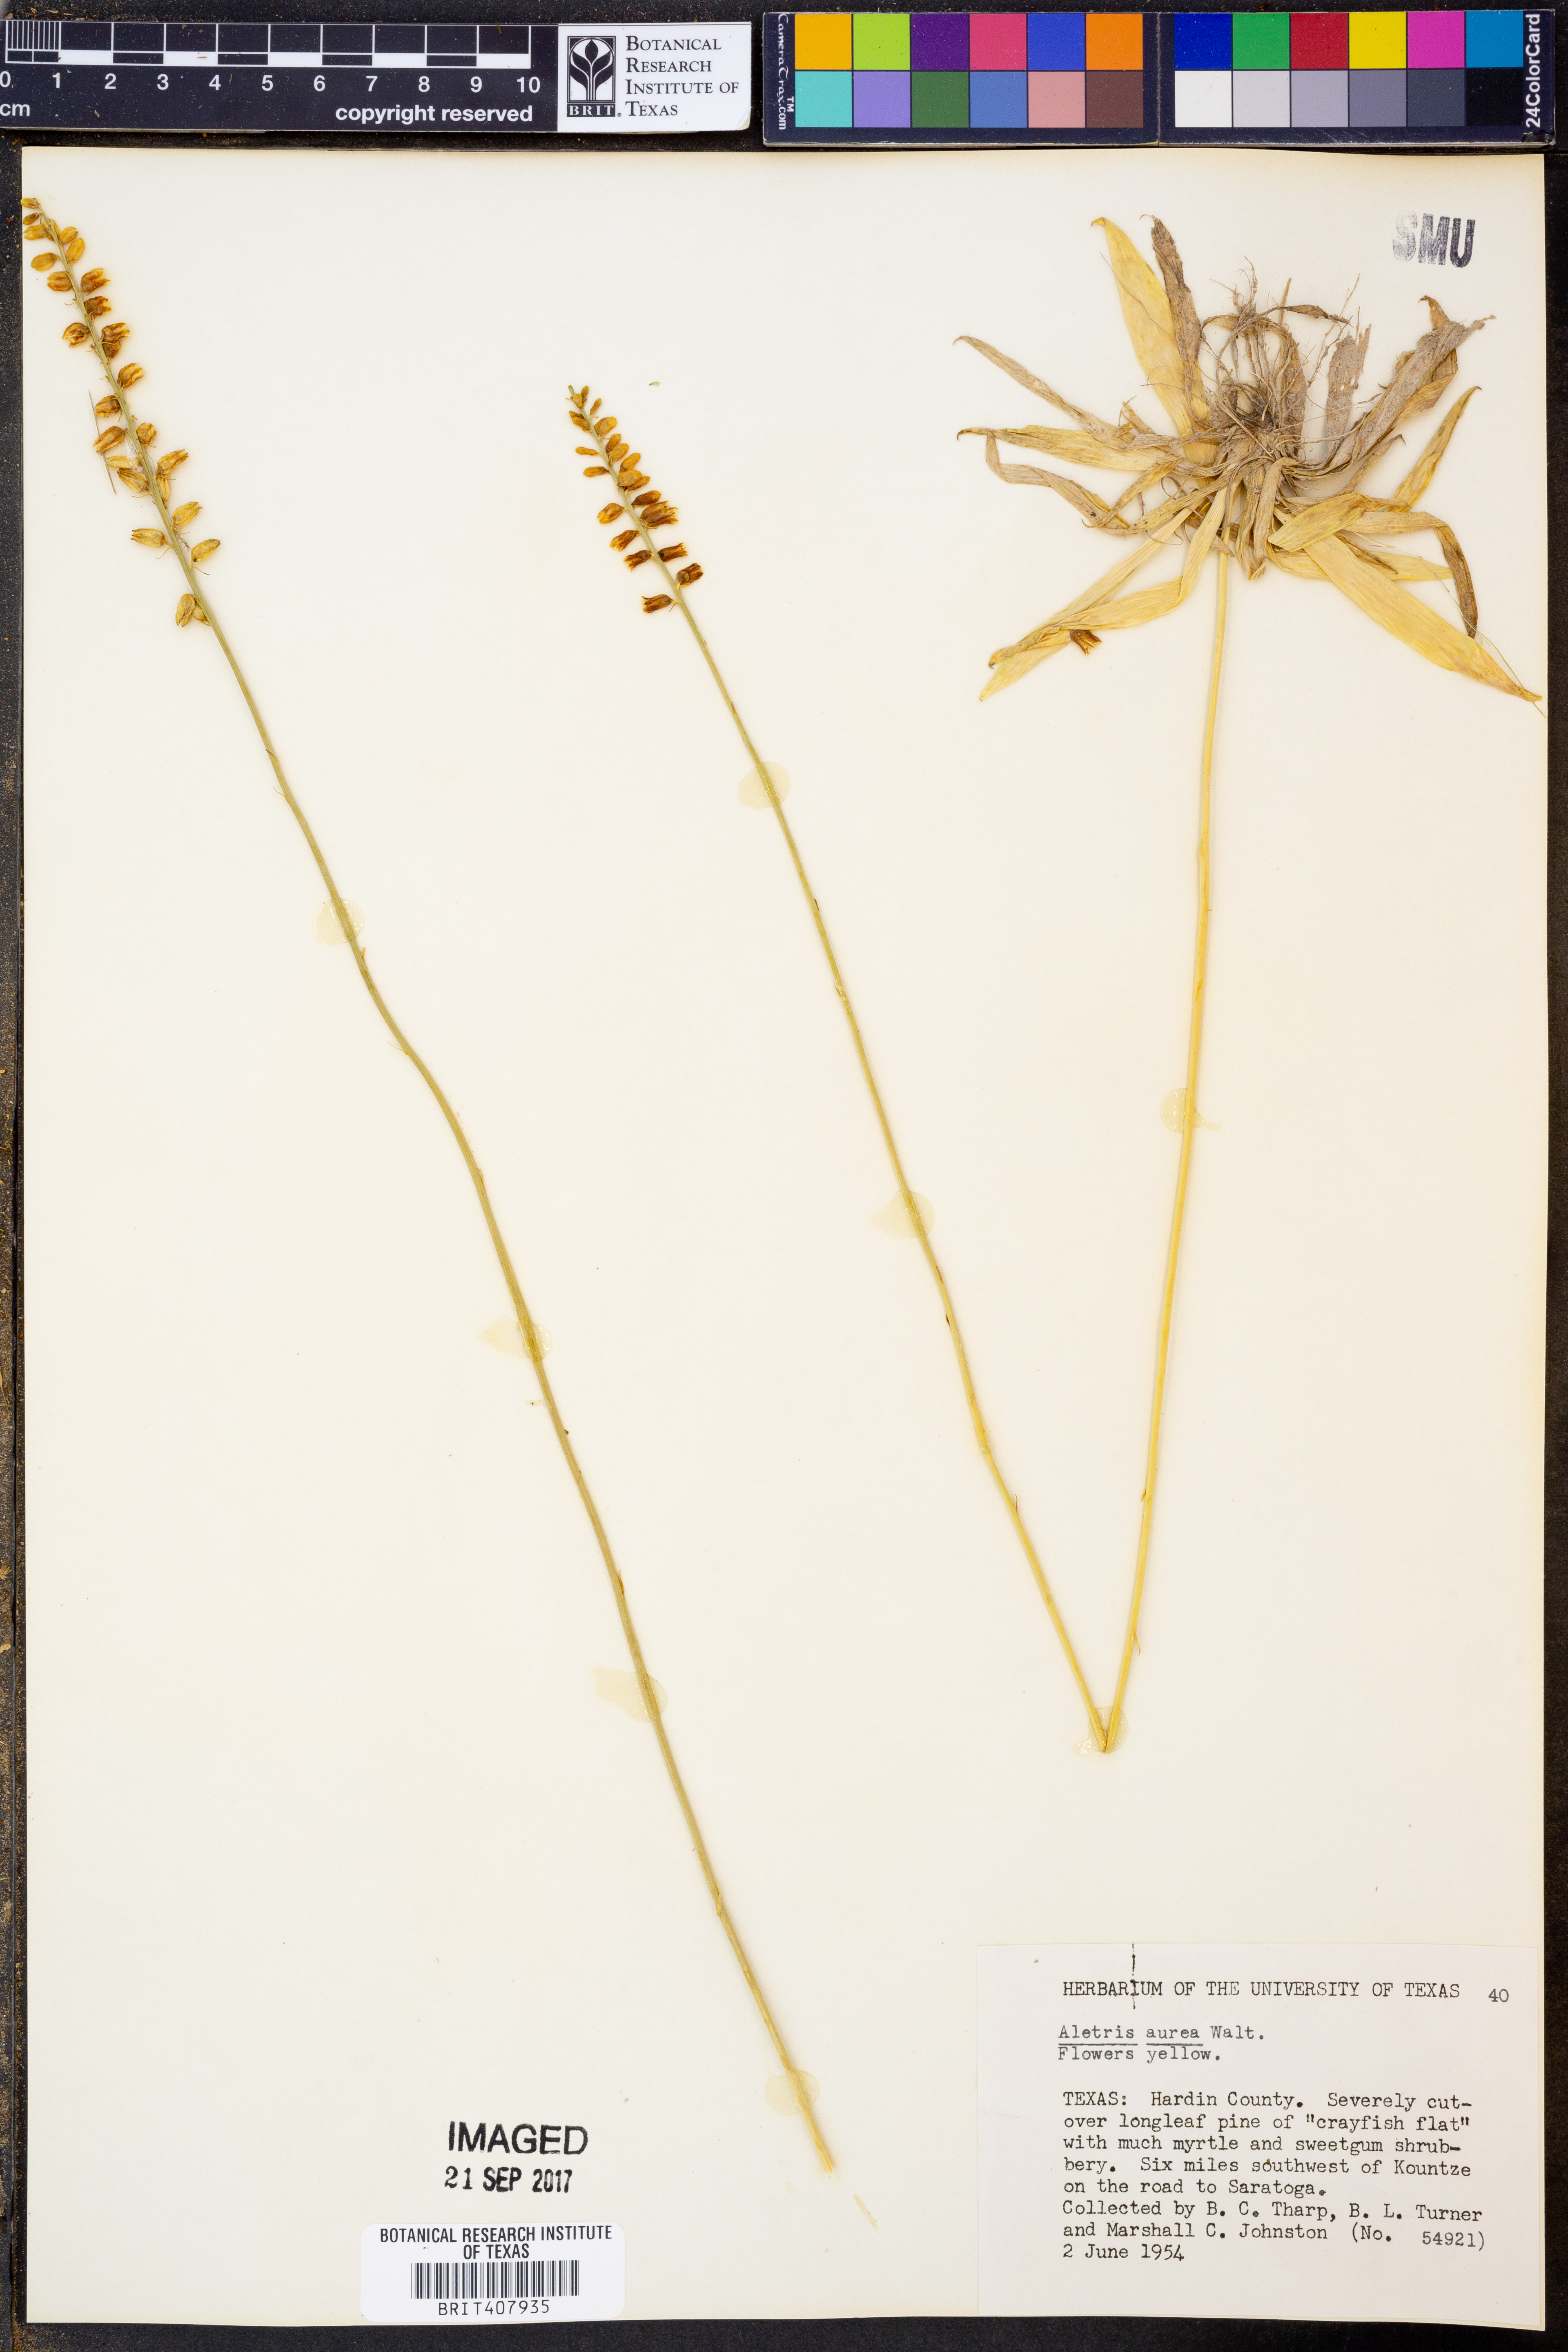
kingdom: Plantae
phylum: Tracheophyta
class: Liliopsida
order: Dioscoreales
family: Nartheciaceae
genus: Aletris
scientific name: Aletris aurea
